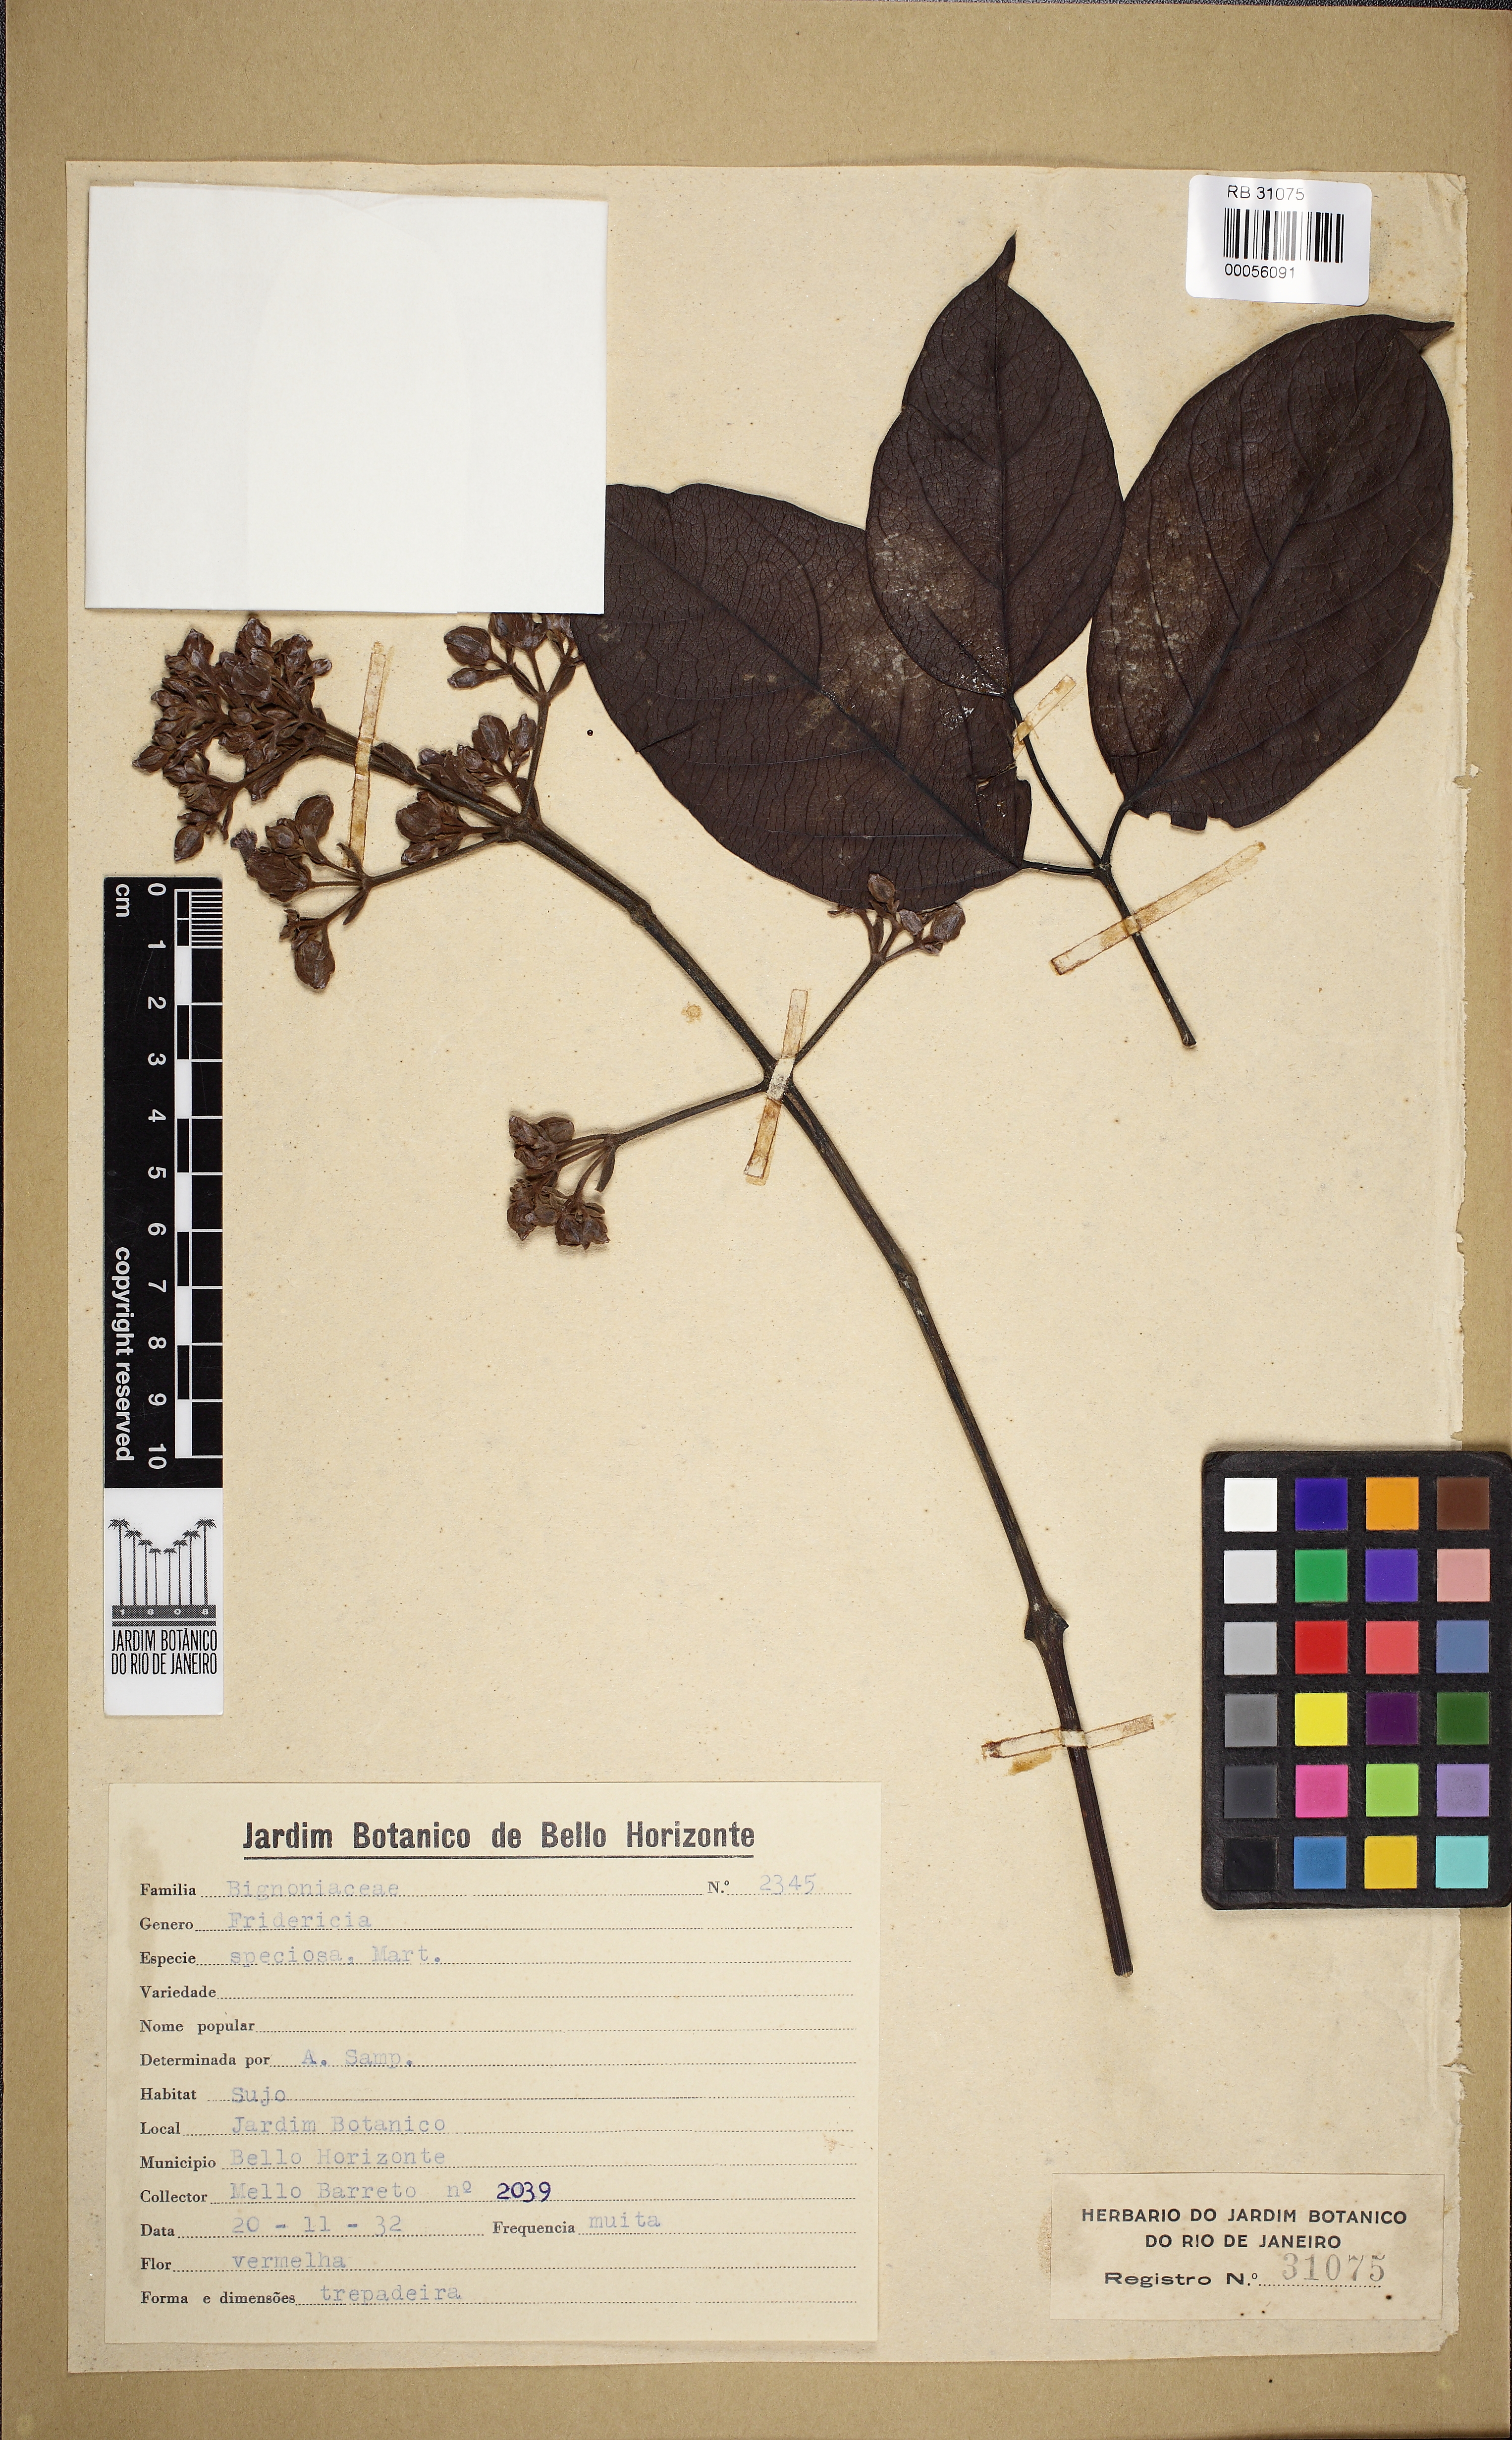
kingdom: Plantae
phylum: Tracheophyta
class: Magnoliopsida
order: Lamiales
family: Bignoniaceae
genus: Fridericia
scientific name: Fridericia speciosa
